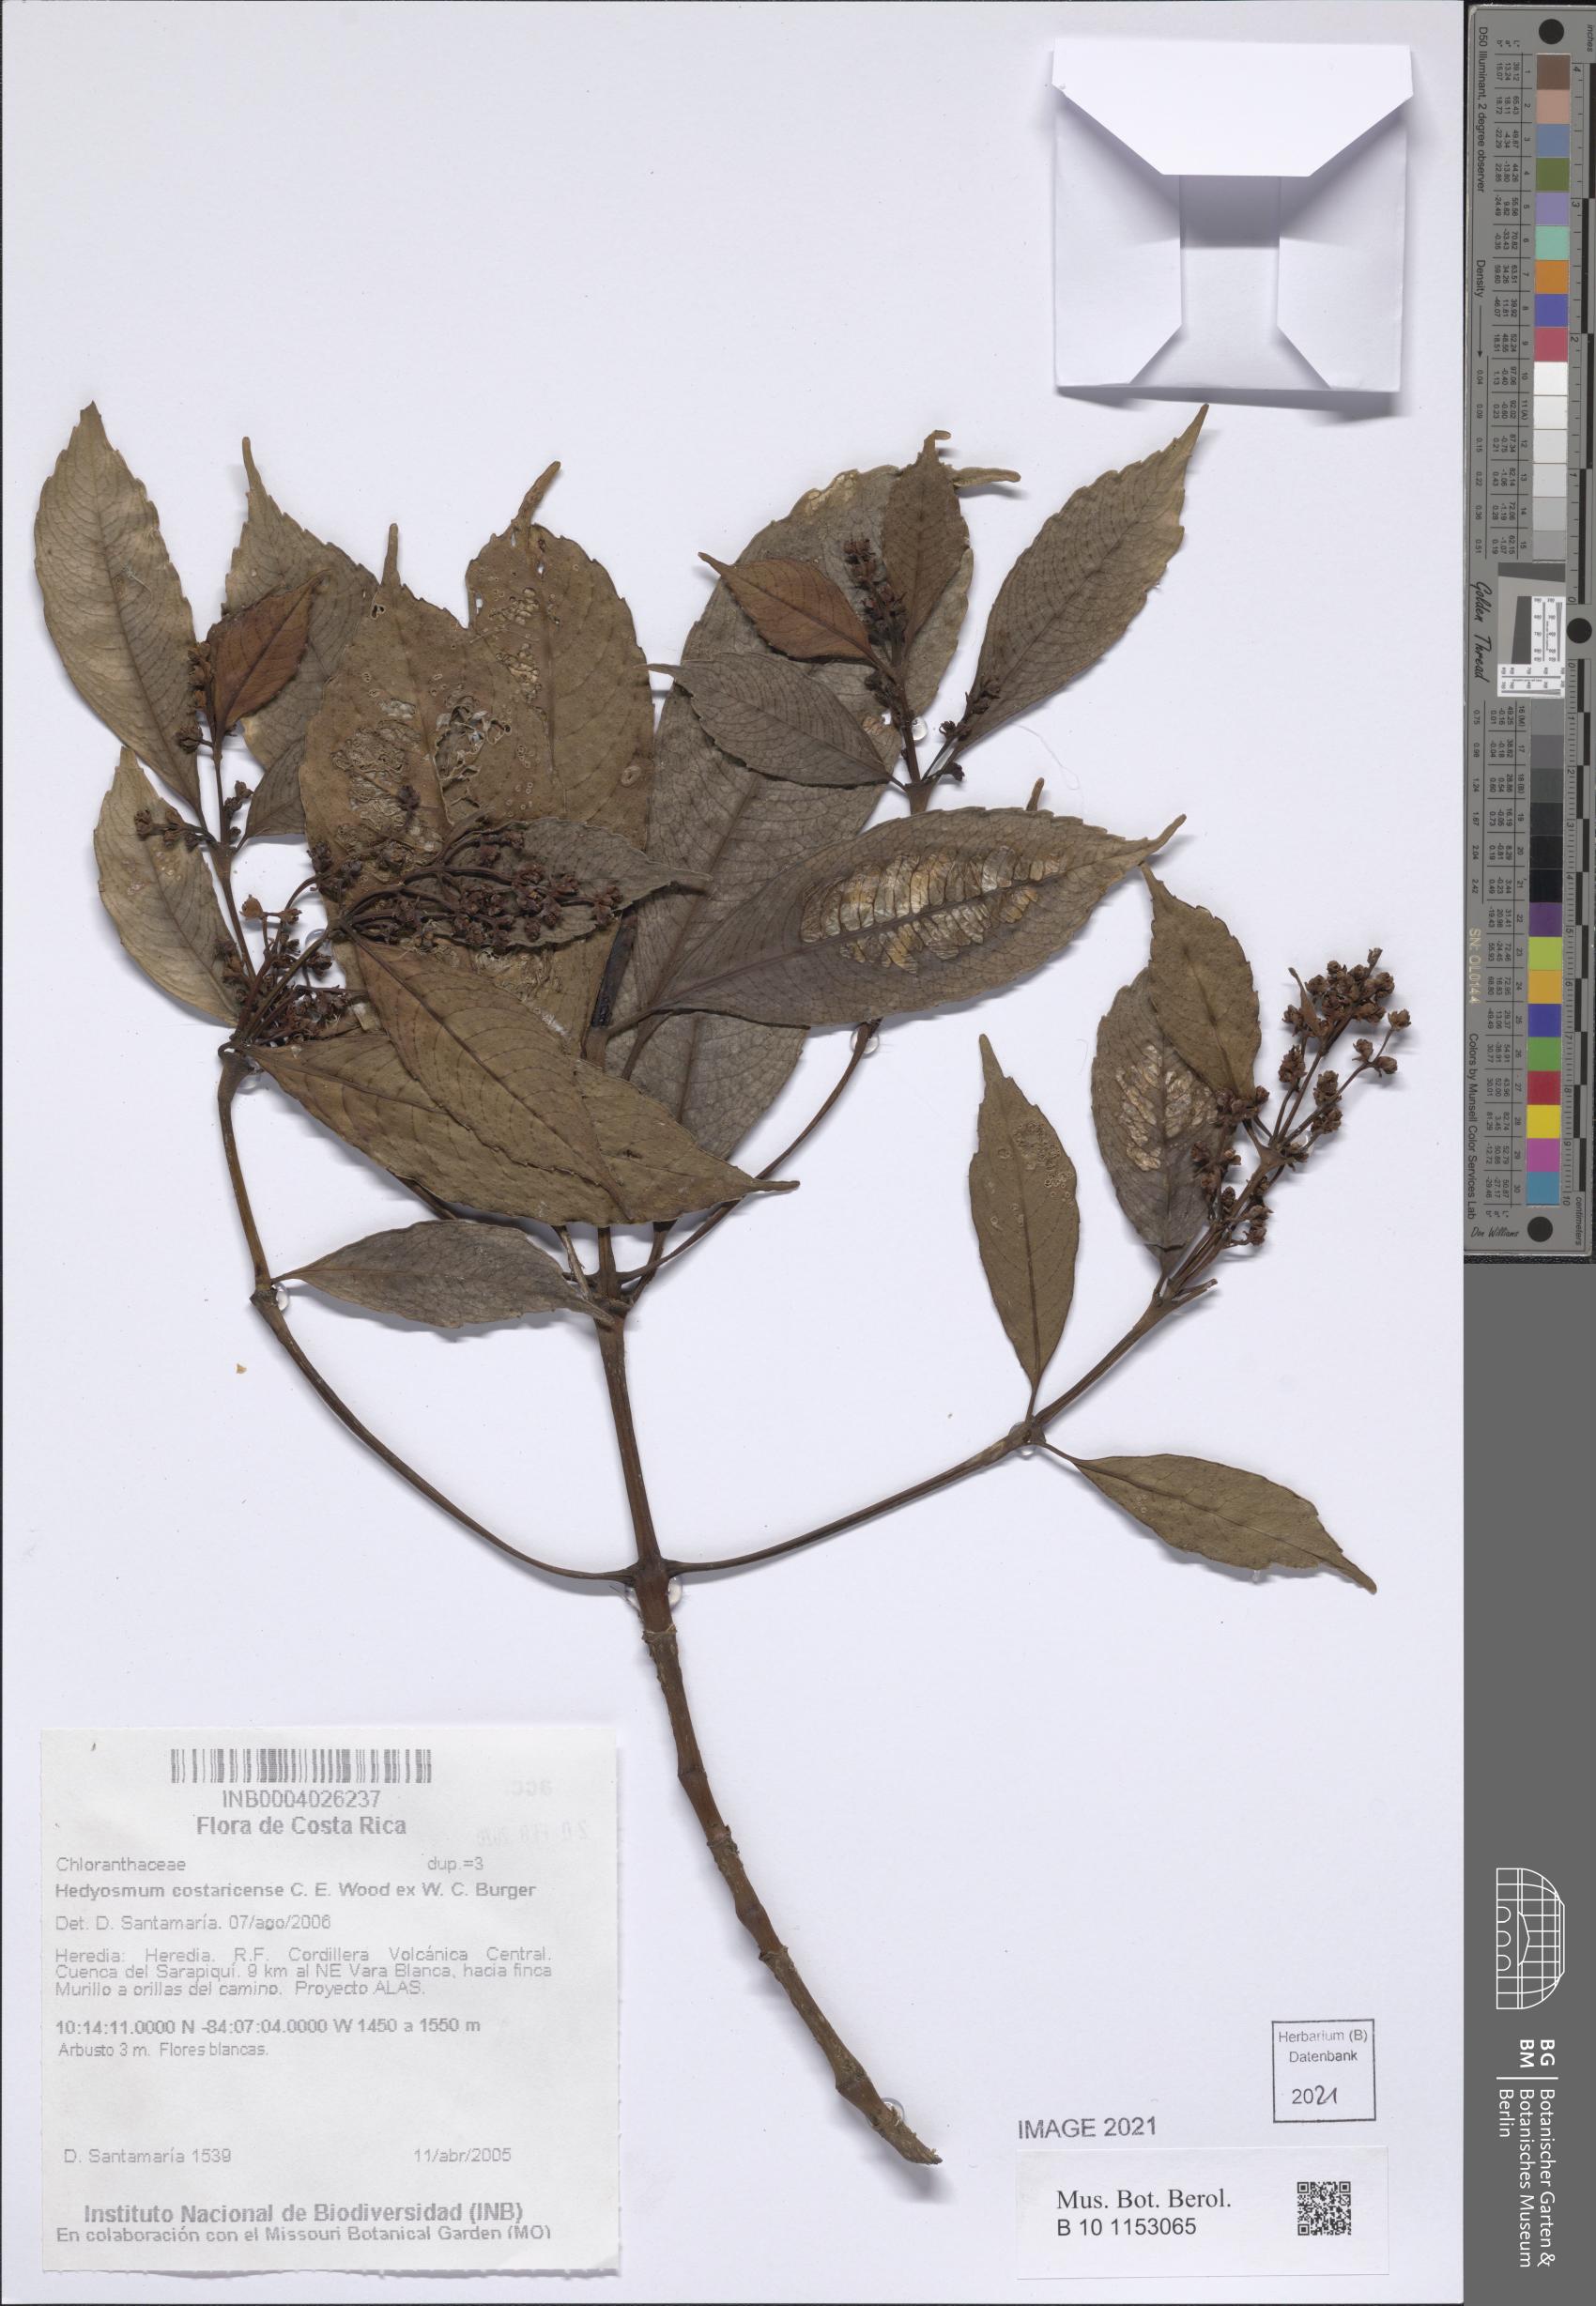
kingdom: Plantae
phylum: Tracheophyta
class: Magnoliopsida
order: Chloranthales
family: Chloranthaceae
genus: Hedyosmum
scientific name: Hedyosmum costaricense
